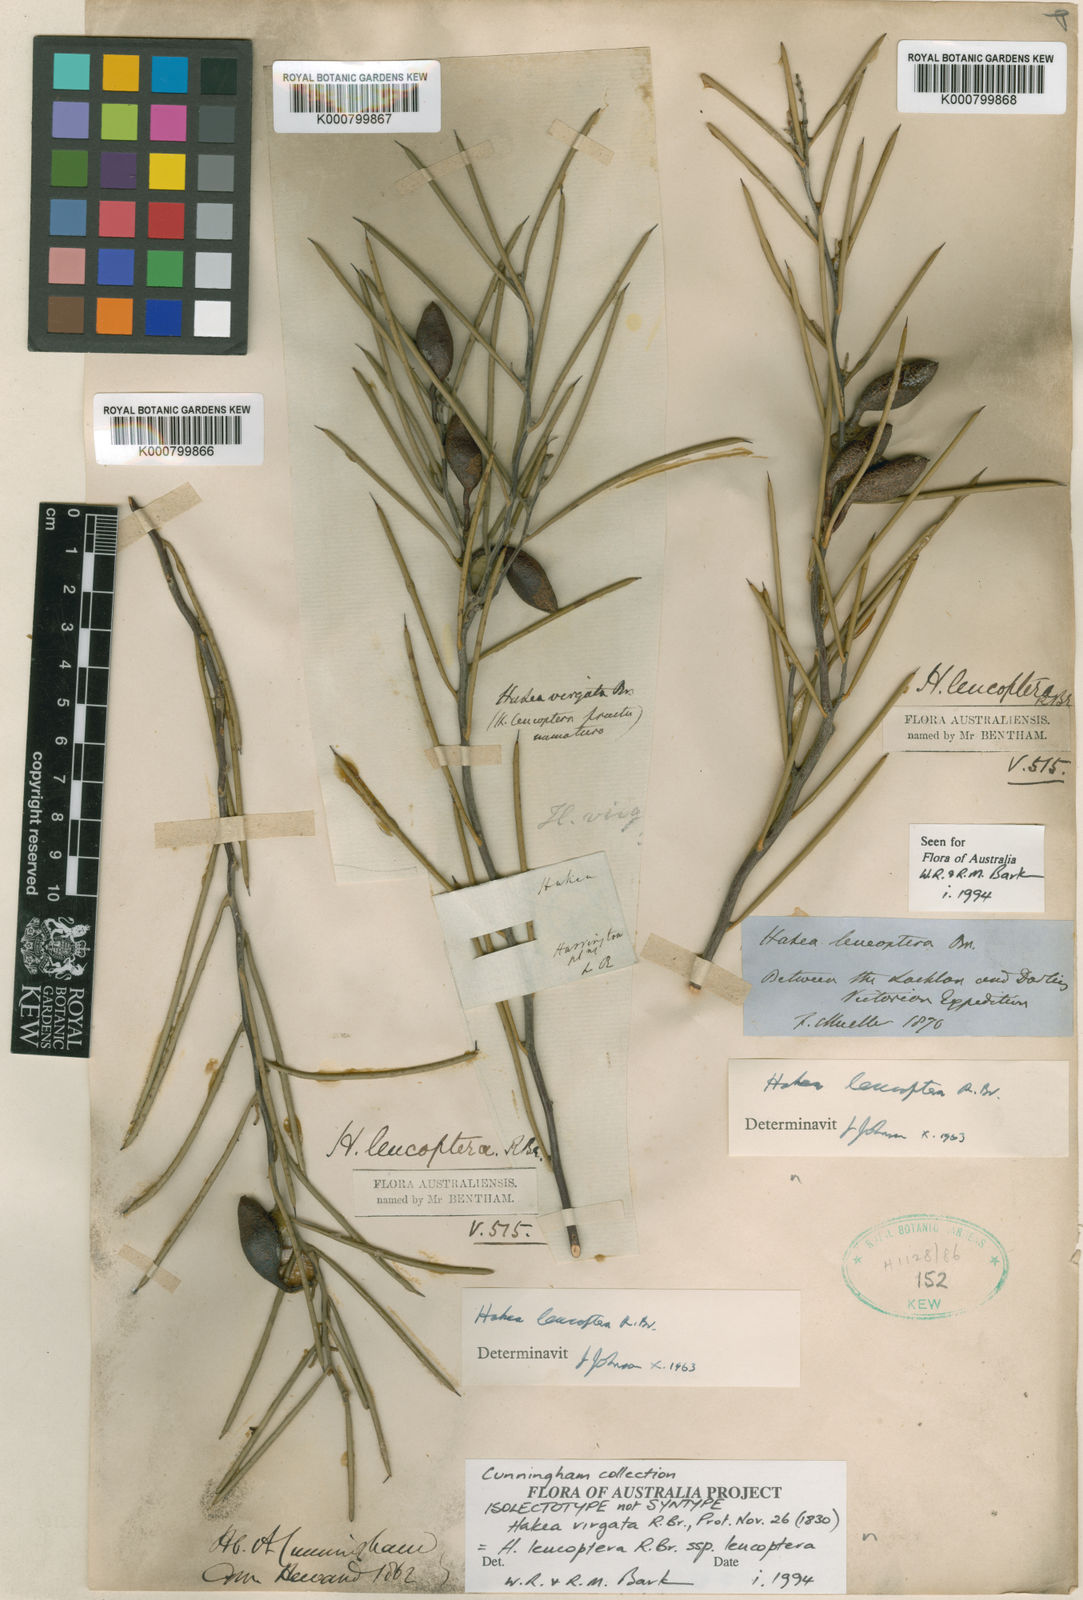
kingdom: Plantae
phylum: Tracheophyta
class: Magnoliopsida
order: Proteales
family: Proteaceae
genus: Hakea
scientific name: Hakea tephrosperma
